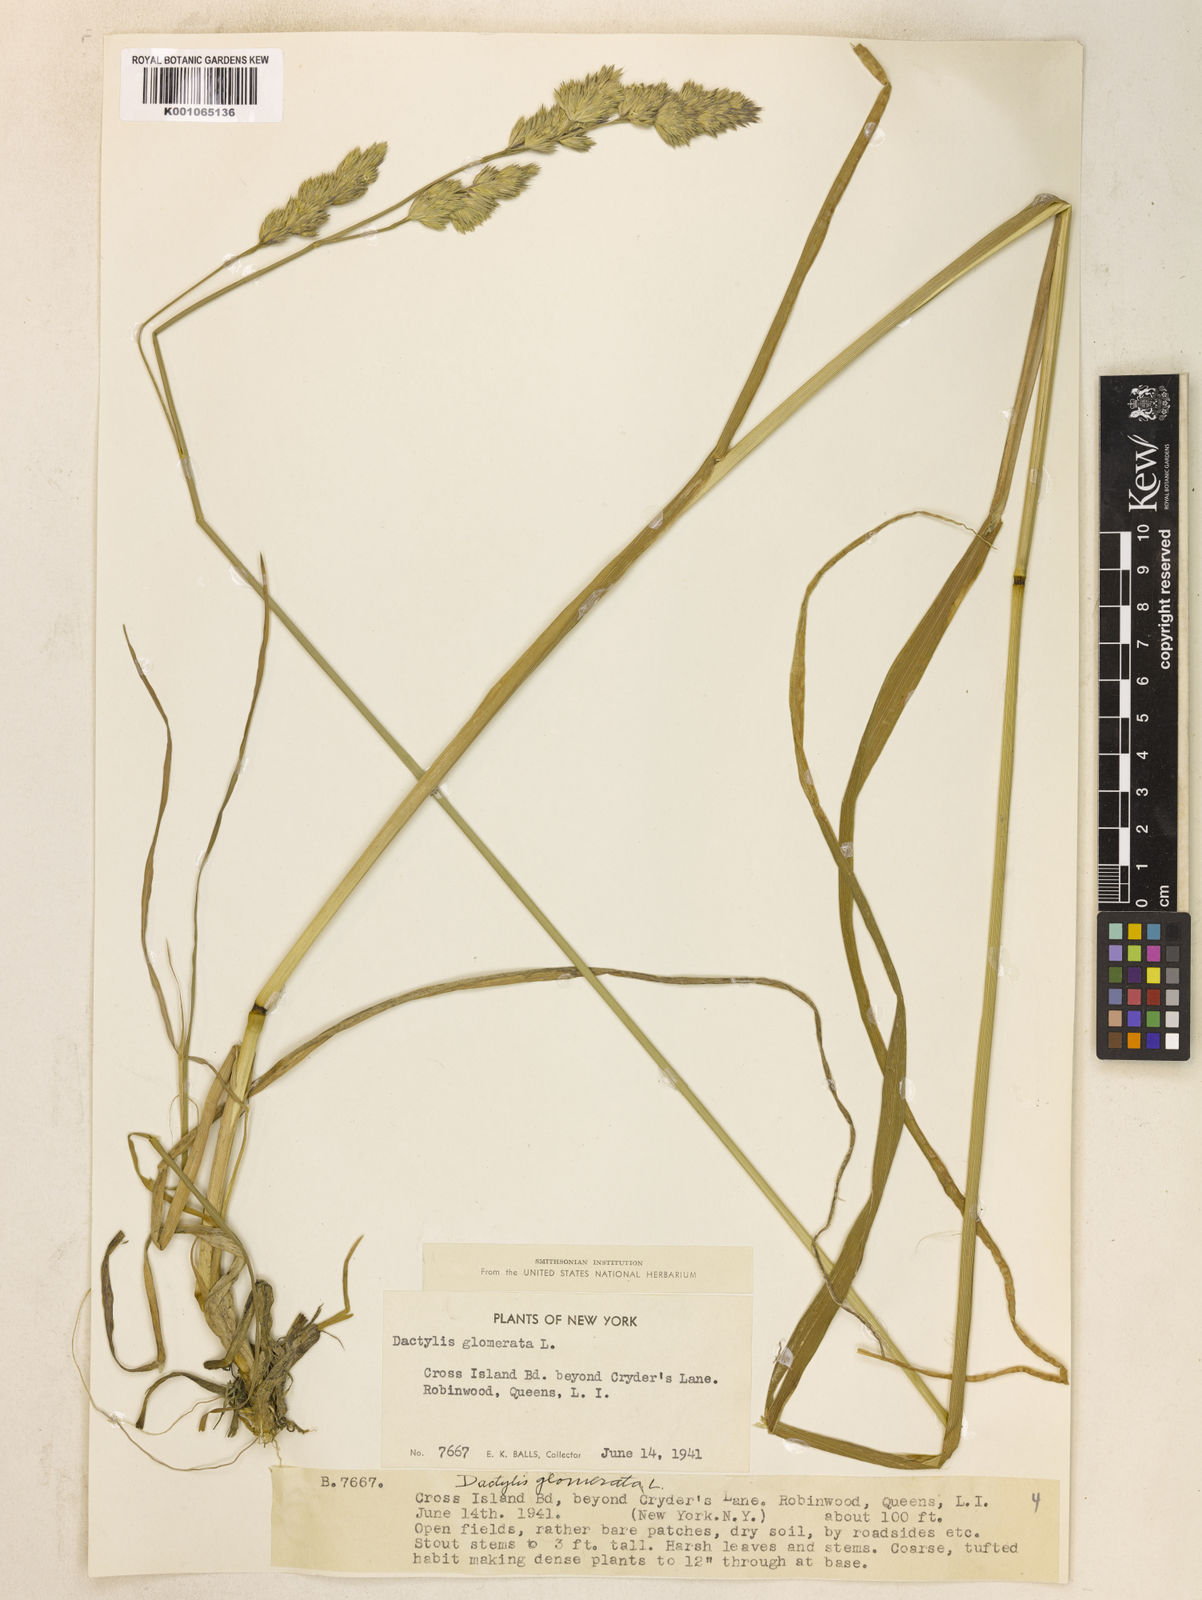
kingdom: Plantae
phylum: Tracheophyta
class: Liliopsida
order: Poales
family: Poaceae
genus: Dactylis
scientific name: Dactylis glomerata
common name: Orchardgrass
